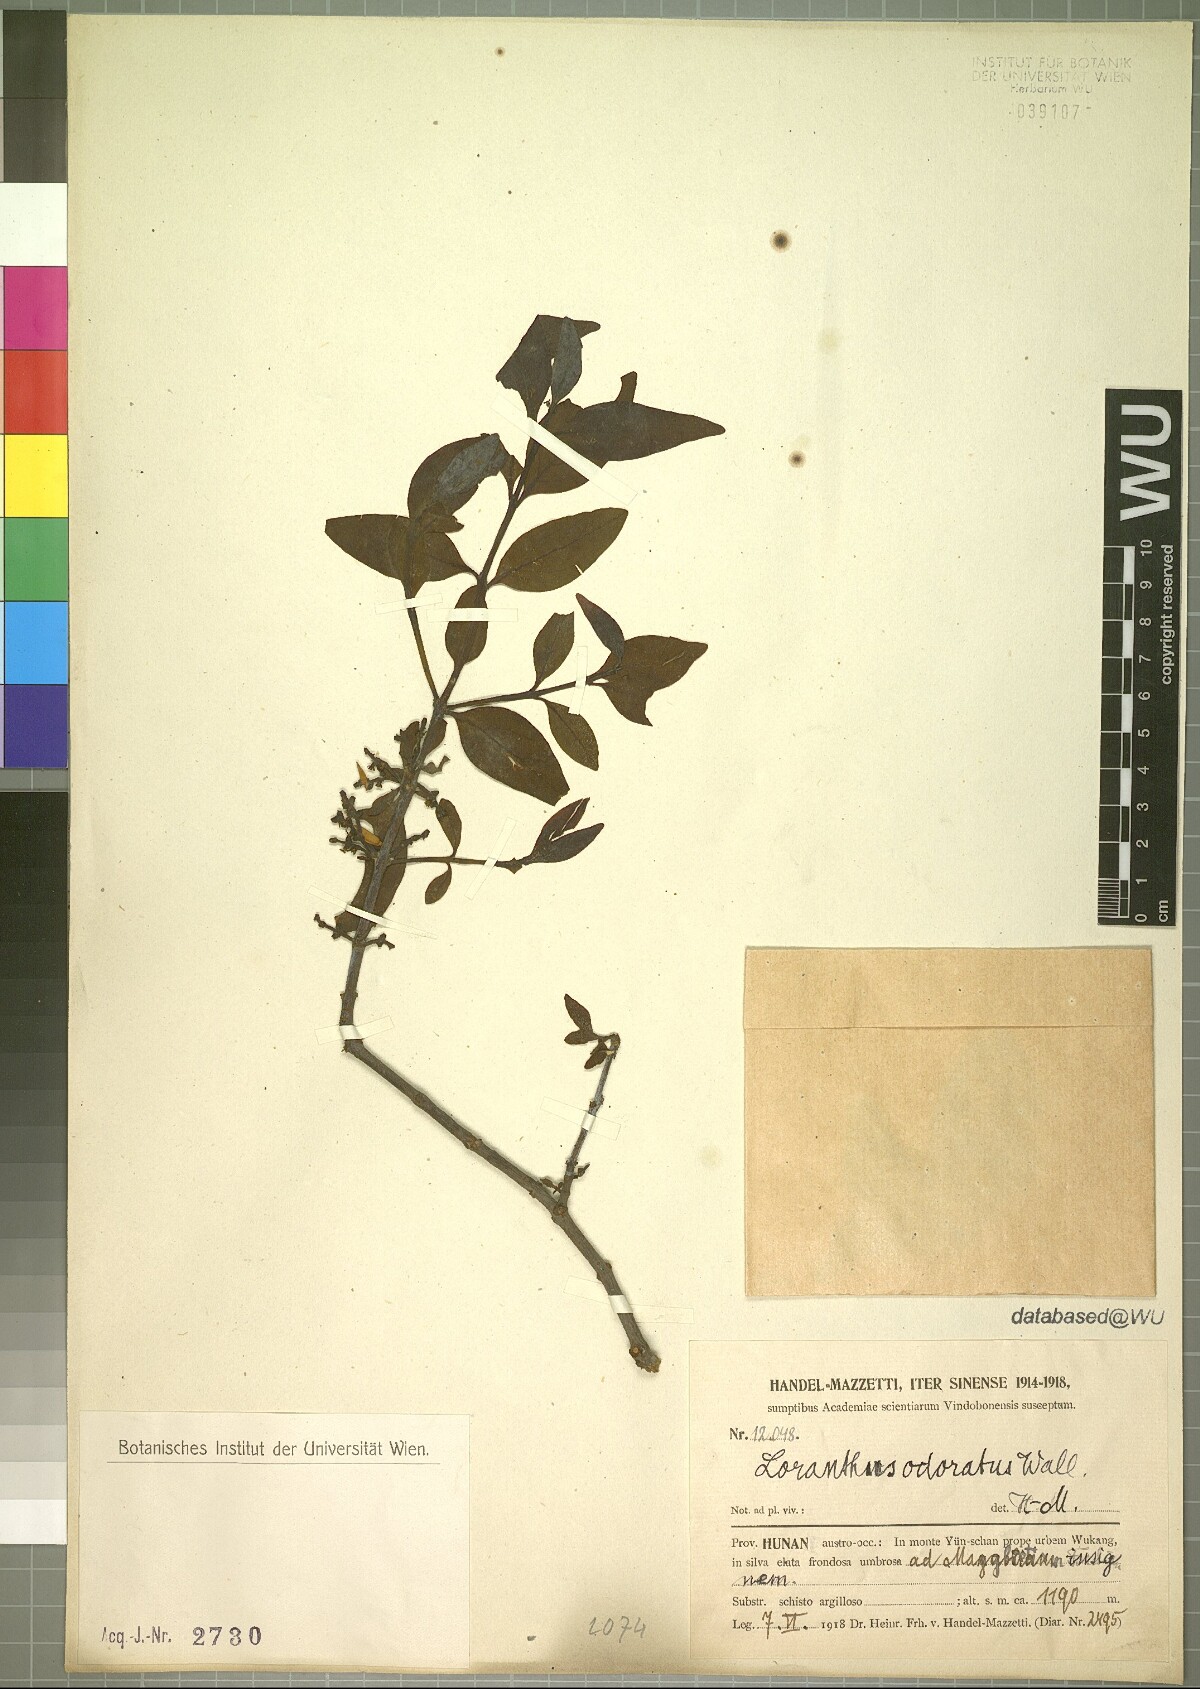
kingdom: Plantae
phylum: Tracheophyta
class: Magnoliopsida
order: Santalales
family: Loranthaceae
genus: Helixanthera
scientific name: Helixanthera odorata
